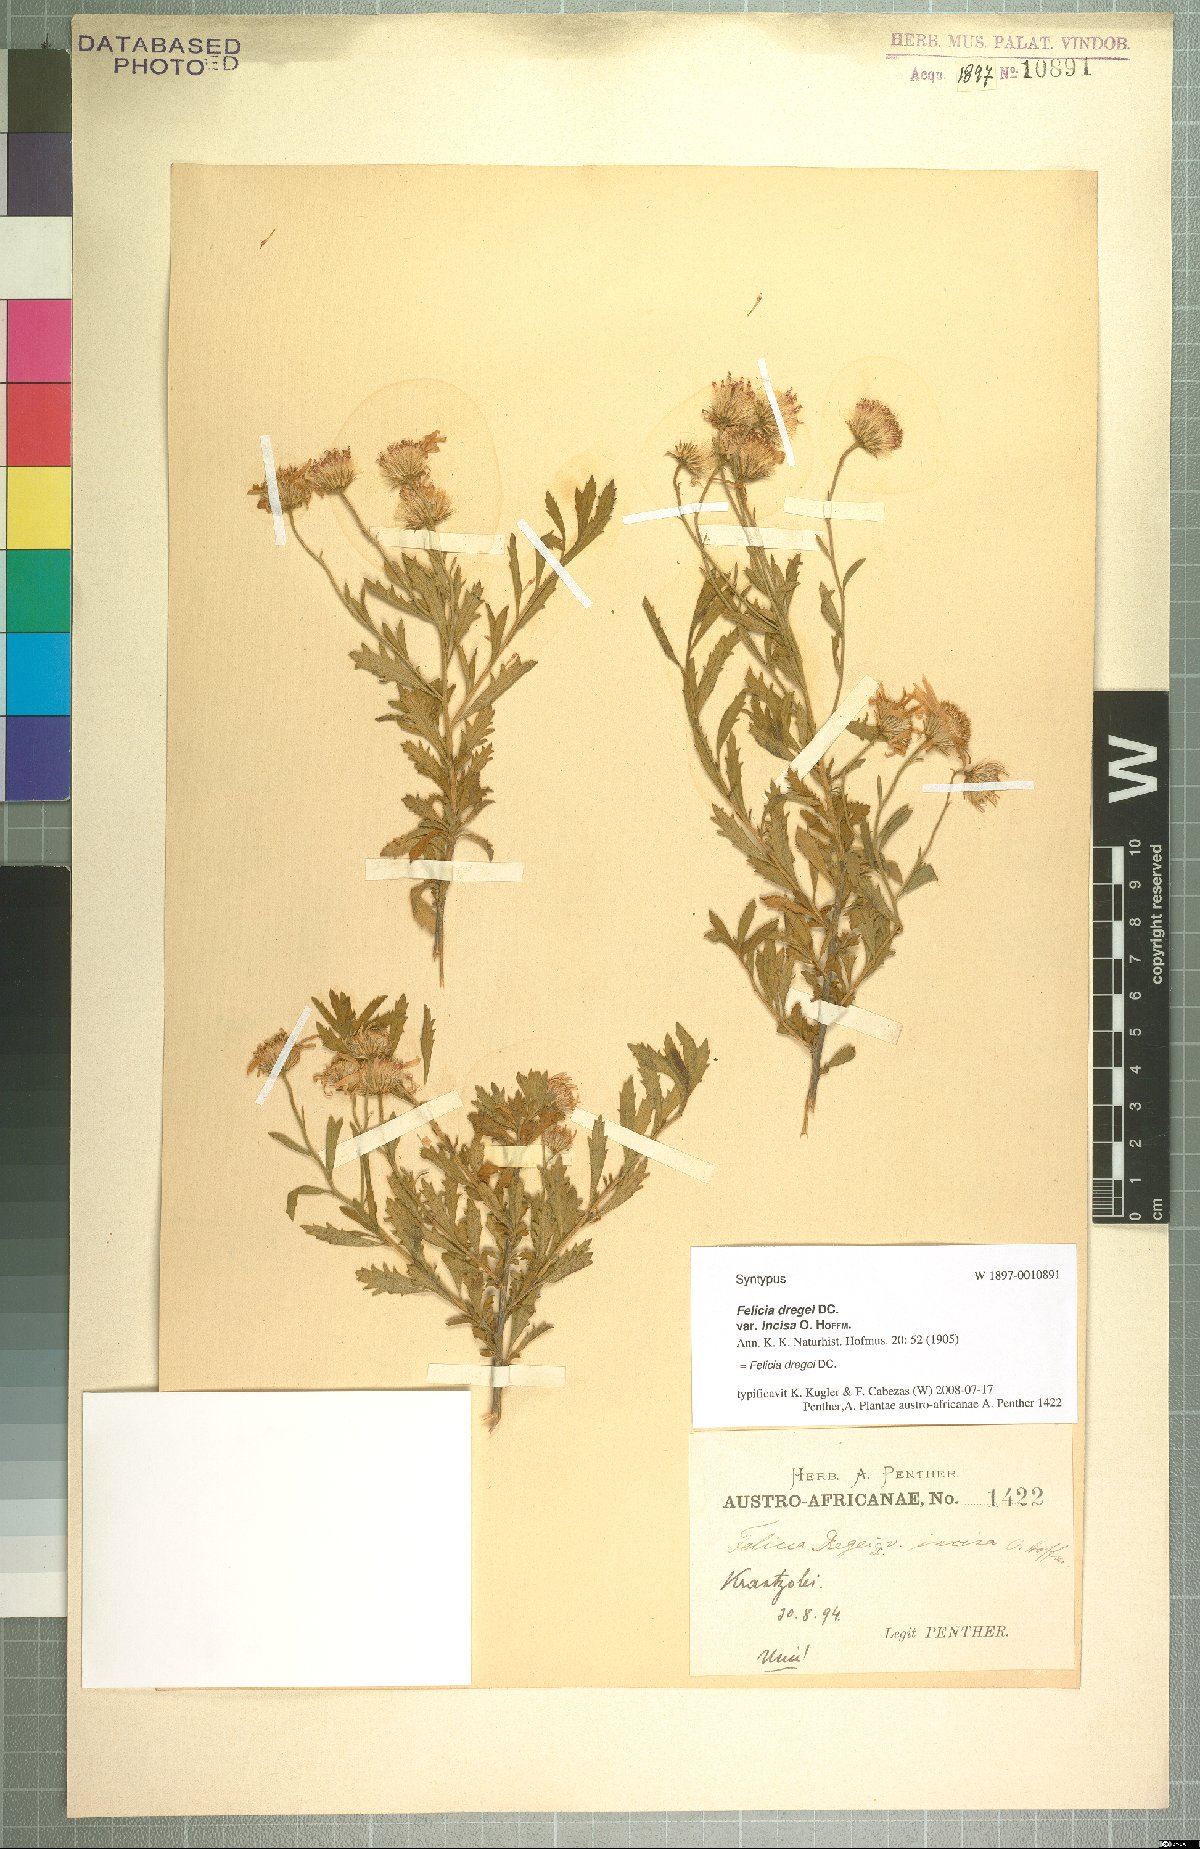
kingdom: Plantae
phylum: Tracheophyta
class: Magnoliopsida
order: Asterales
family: Asteraceae
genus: Felicia
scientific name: Felicia dregei
